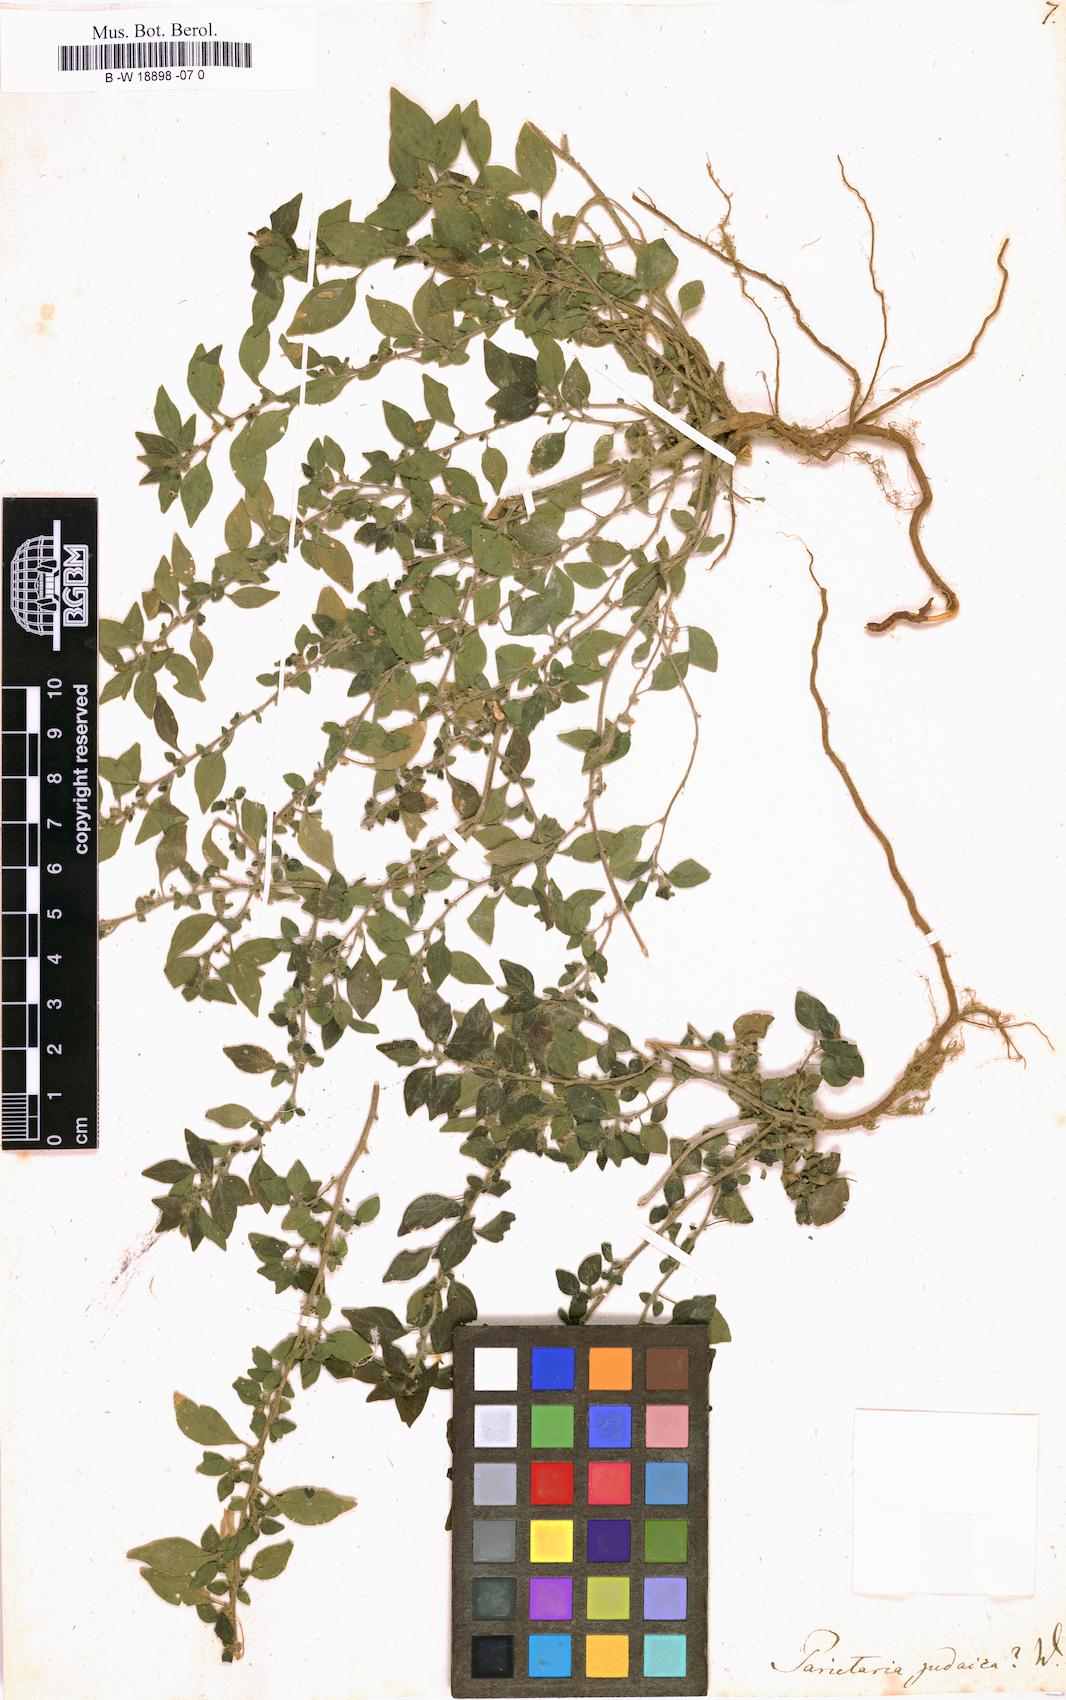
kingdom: Plantae
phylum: Tracheophyta
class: Magnoliopsida
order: Rosales
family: Urticaceae
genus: Parietaria
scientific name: Parietaria judaica
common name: Pellitory-of-the-wall
